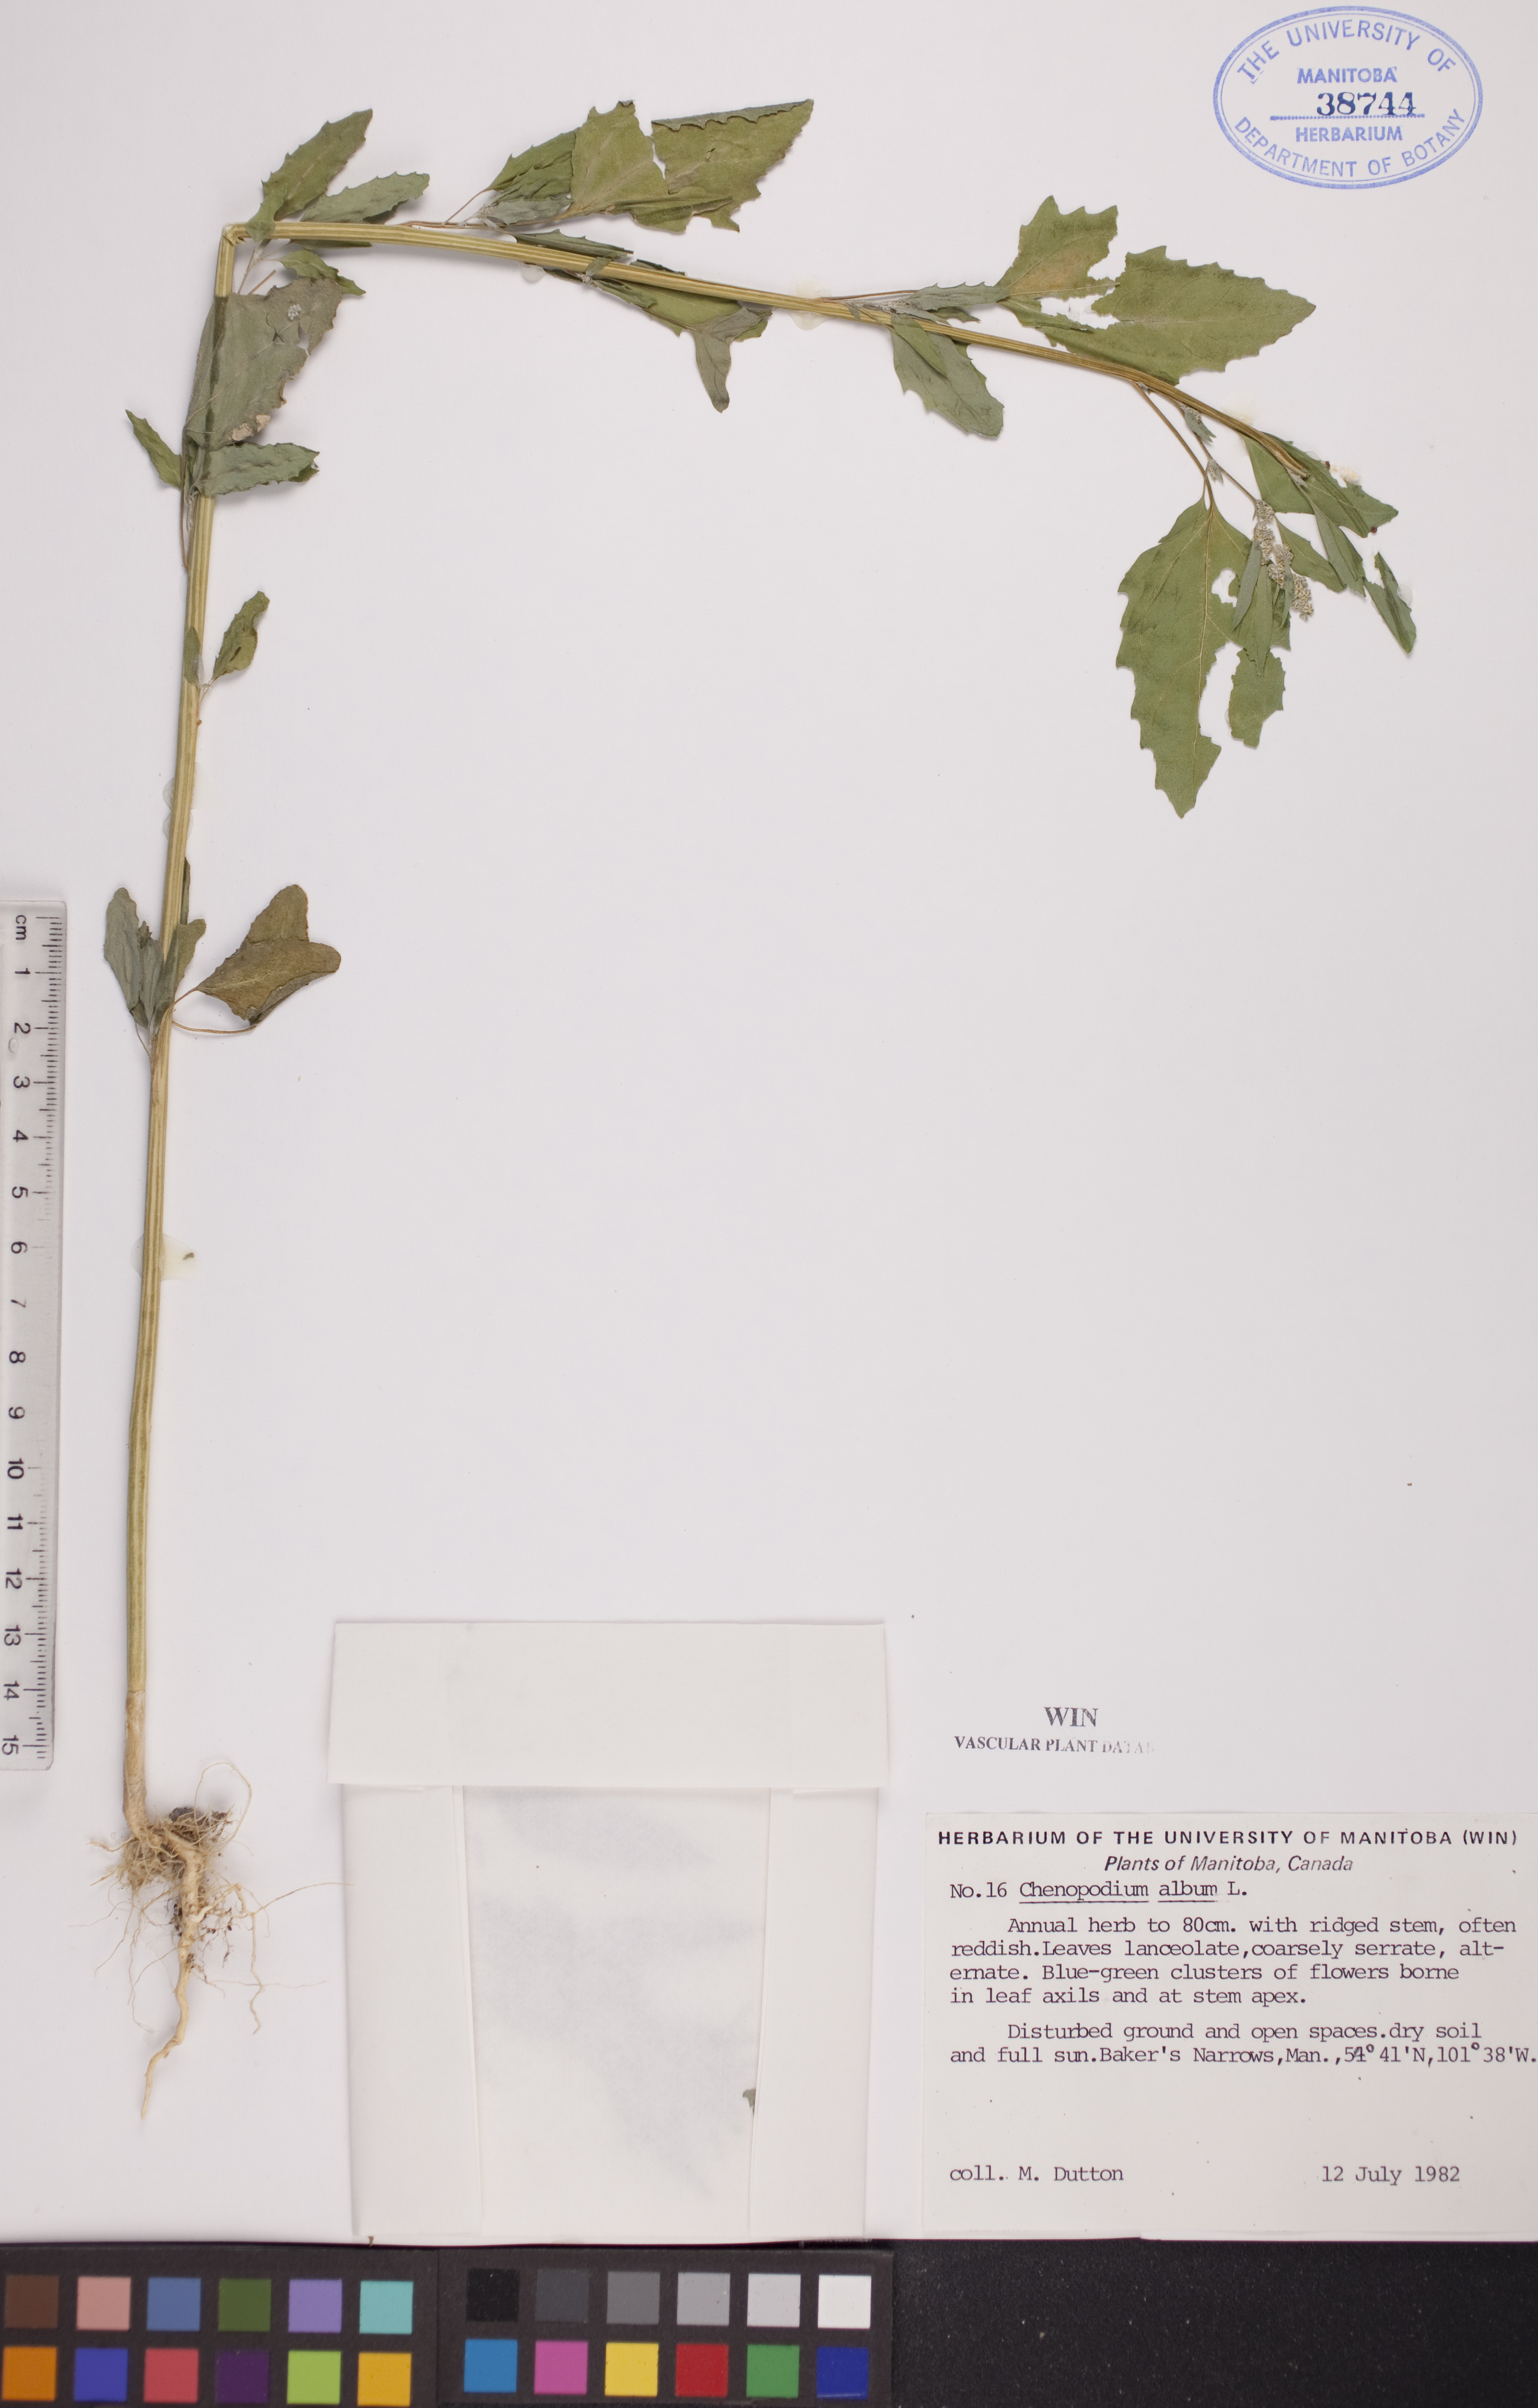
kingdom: Plantae
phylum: Tracheophyta
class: Magnoliopsida
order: Caryophyllales
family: Amaranthaceae
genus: Chenopodium
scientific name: Chenopodium album
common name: Fat-hen
